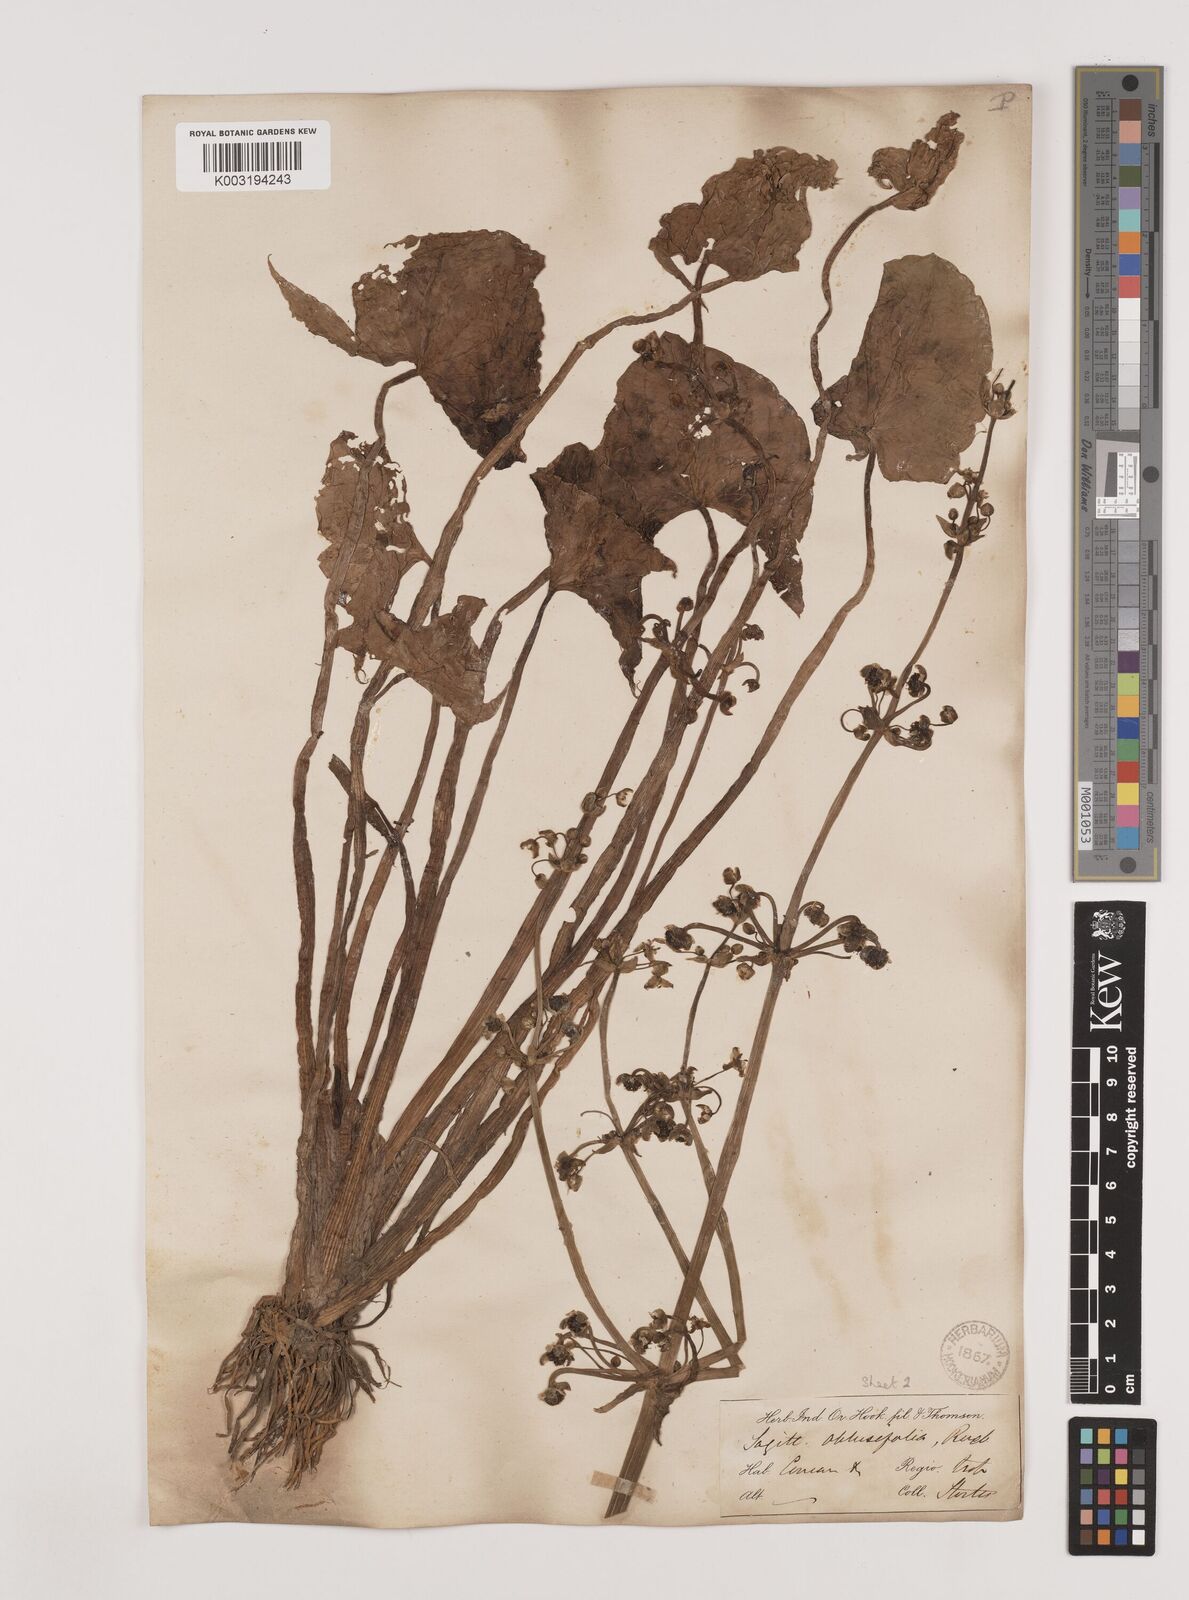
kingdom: Plantae
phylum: Tracheophyta
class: Liliopsida
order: Alismatales
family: Alismataceae
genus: Limnophyton
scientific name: Limnophyton obtusifolium
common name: Arrow head
